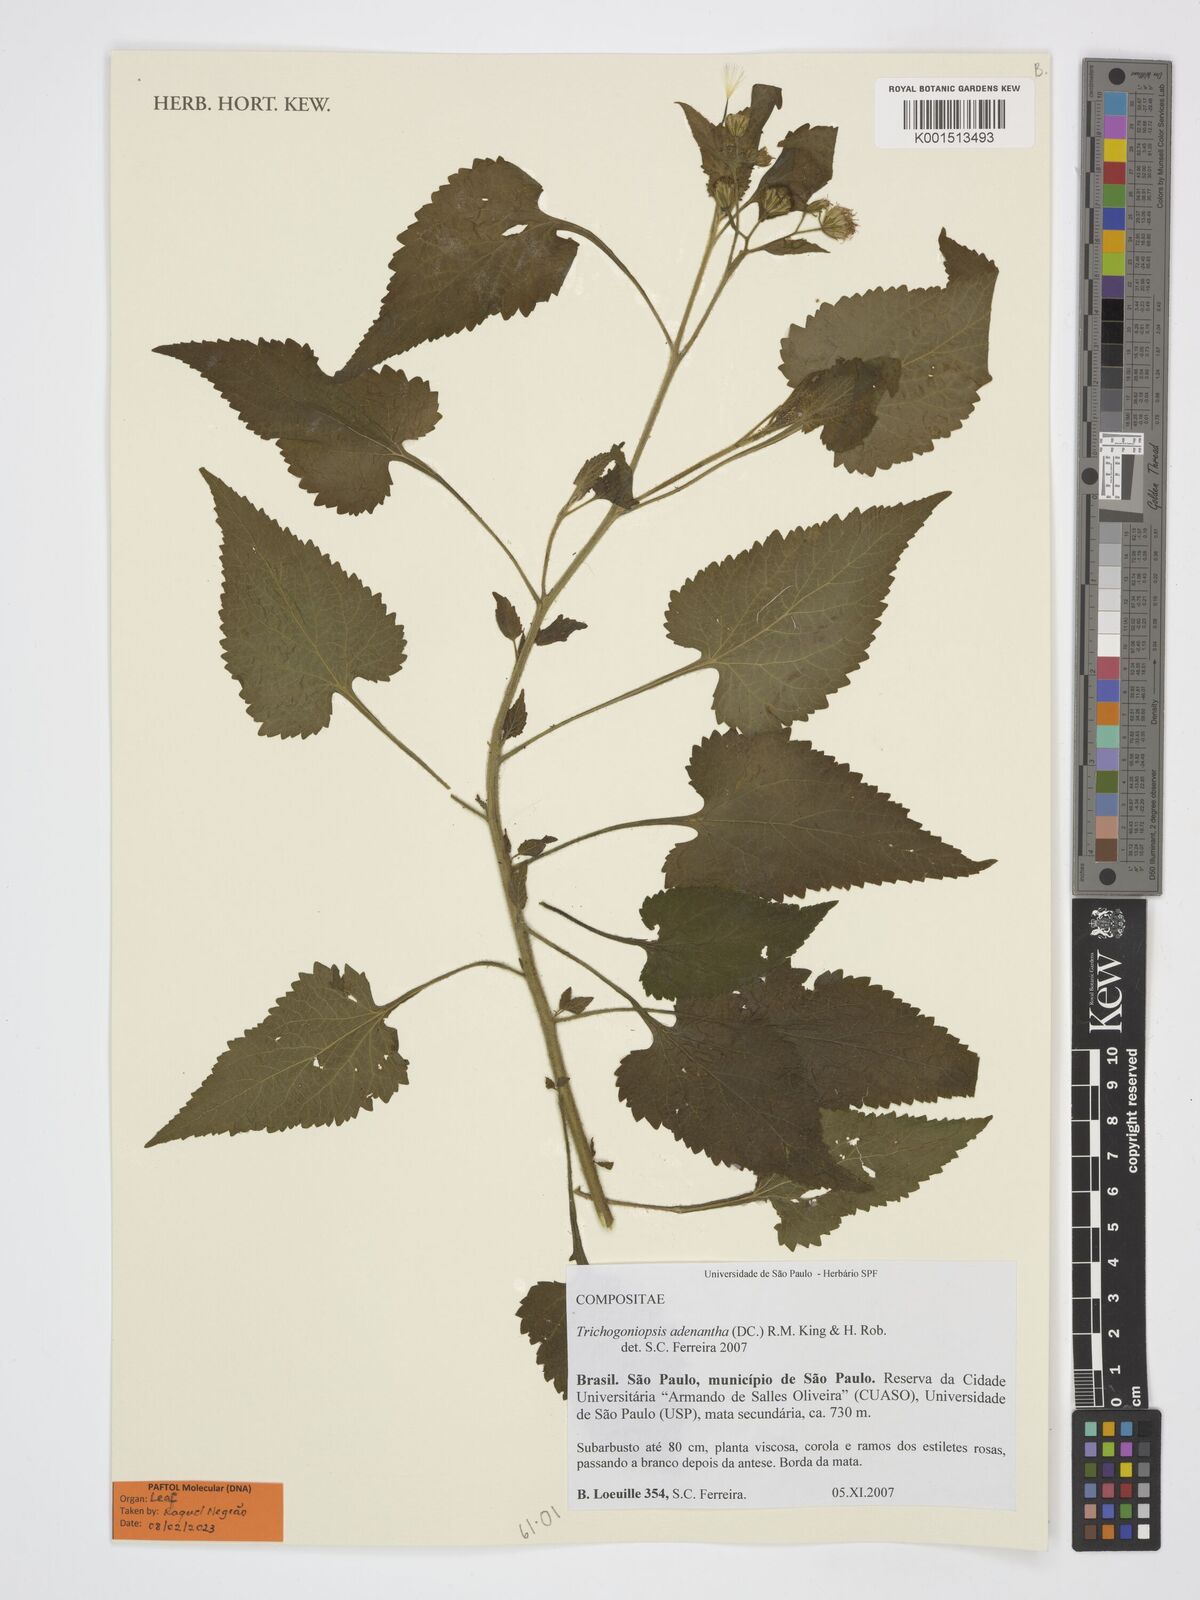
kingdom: Plantae
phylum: Tracheophyta
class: Magnoliopsida
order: Asterales
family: Asteraceae
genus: Trichogoniopsis
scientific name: Trichogoniopsis adenantha
